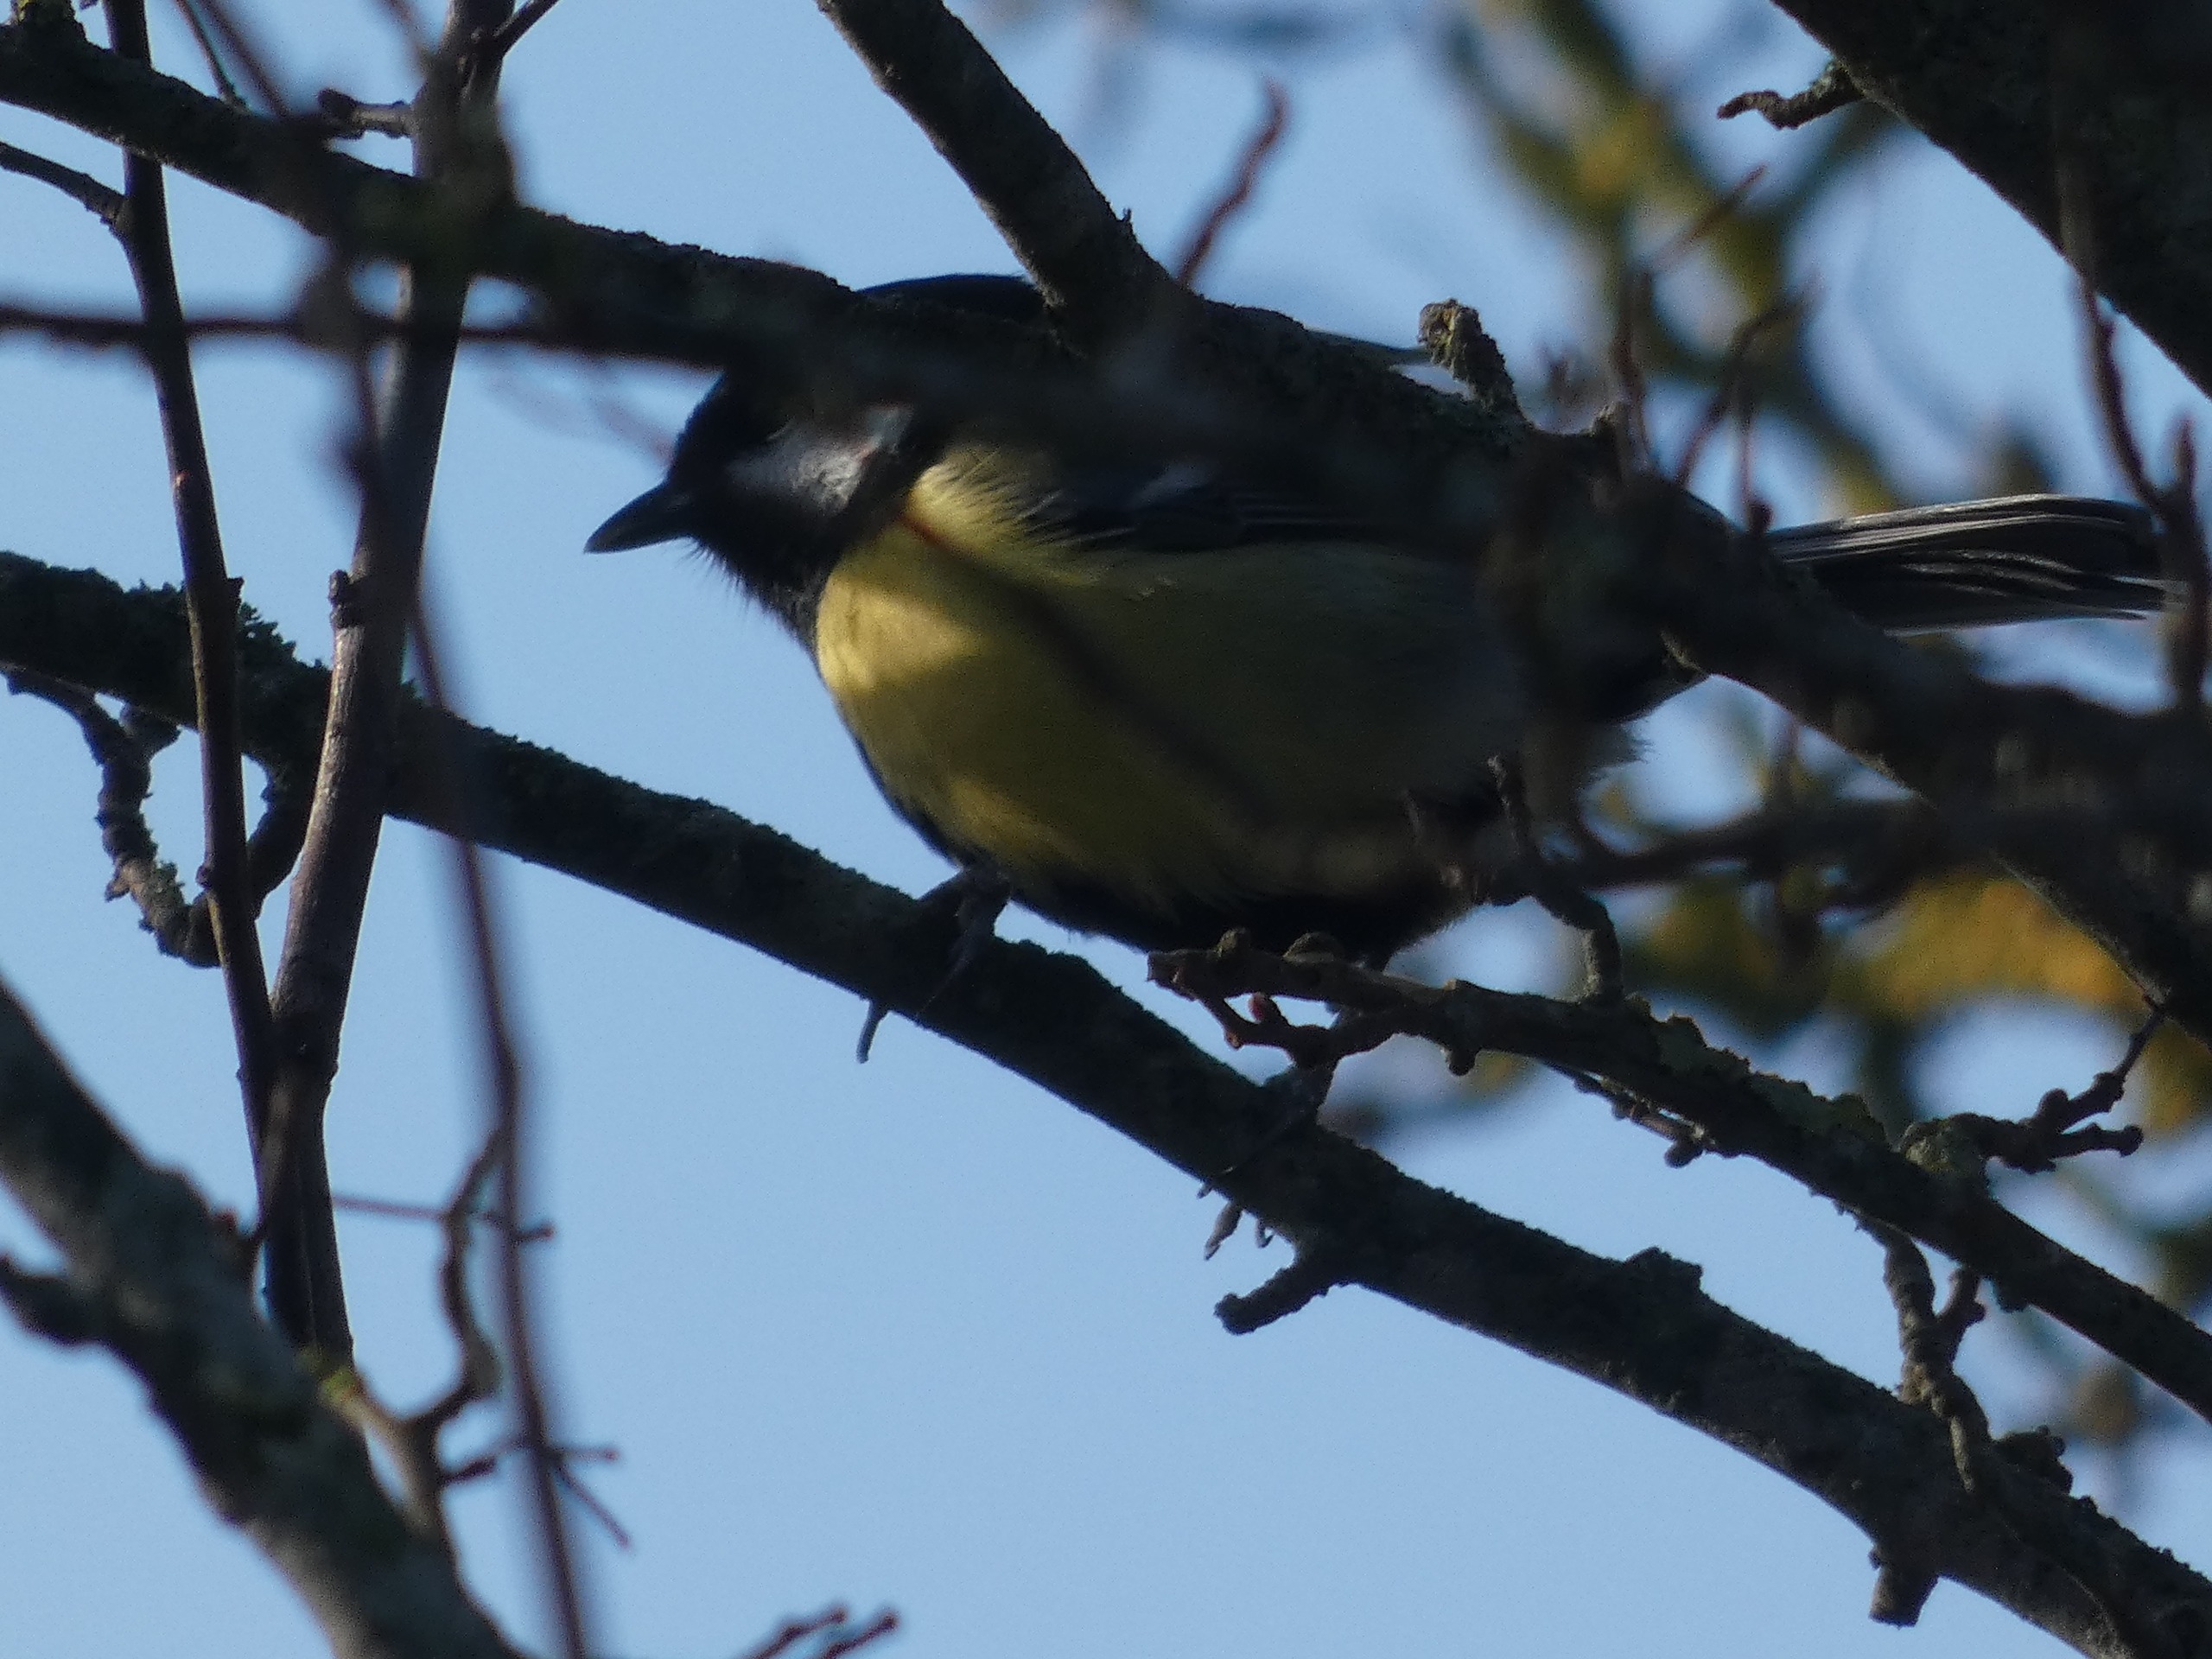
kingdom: Animalia
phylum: Chordata
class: Aves
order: Passeriformes
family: Paridae
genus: Parus
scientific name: Parus major
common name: Musvit
